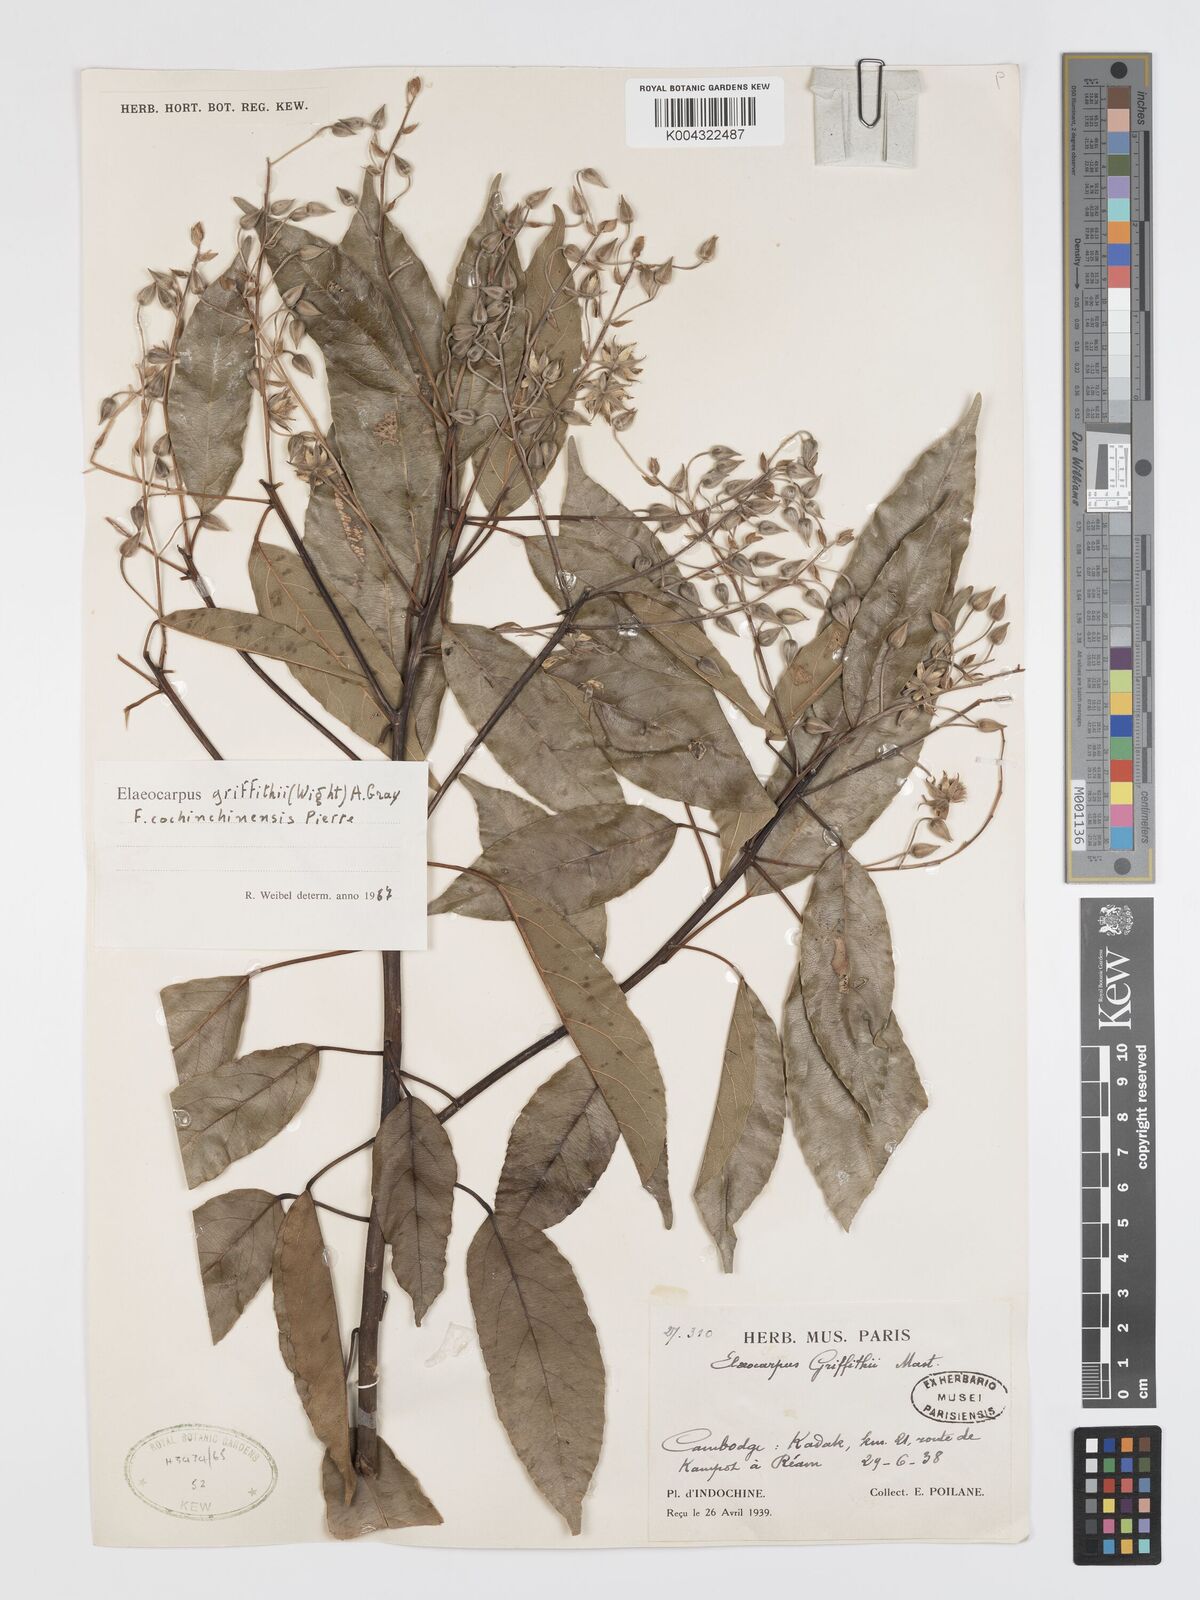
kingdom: Plantae
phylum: Tracheophyta
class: Magnoliopsida
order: Oxalidales
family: Elaeocarpaceae
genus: Elaeocarpus
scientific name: Elaeocarpus griffithii
